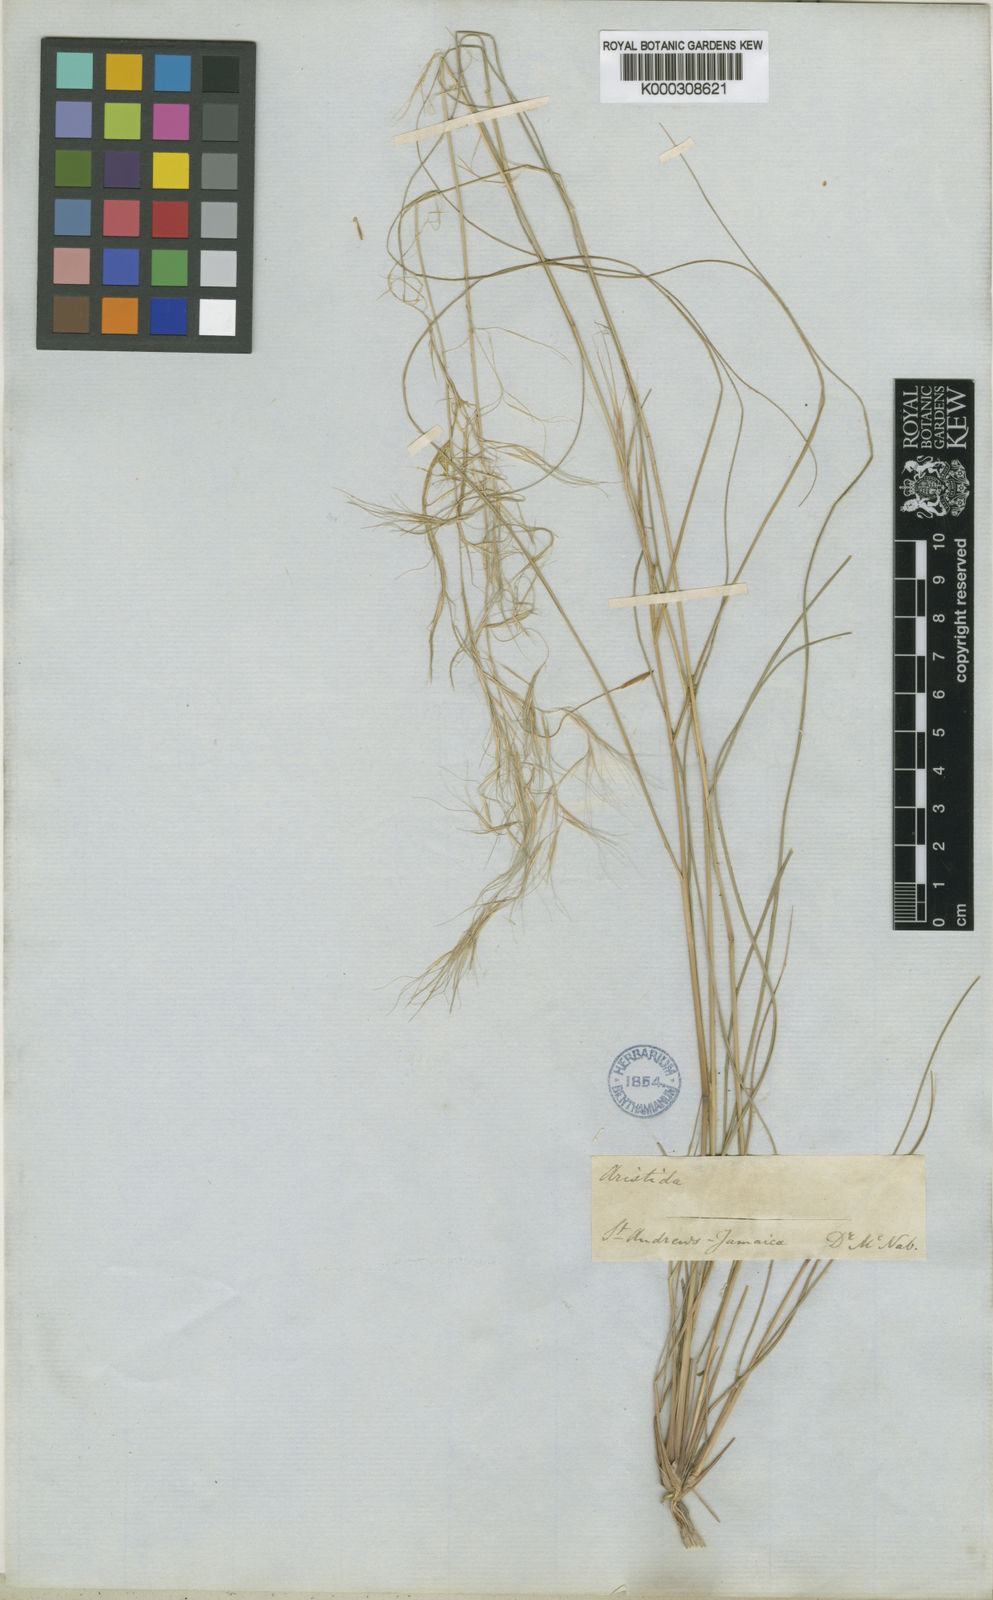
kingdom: Plantae
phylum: Tracheophyta
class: Liliopsida
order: Poales
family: Poaceae
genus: Aristida
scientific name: Aristida adscensionis
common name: Sixweeks threeawn
